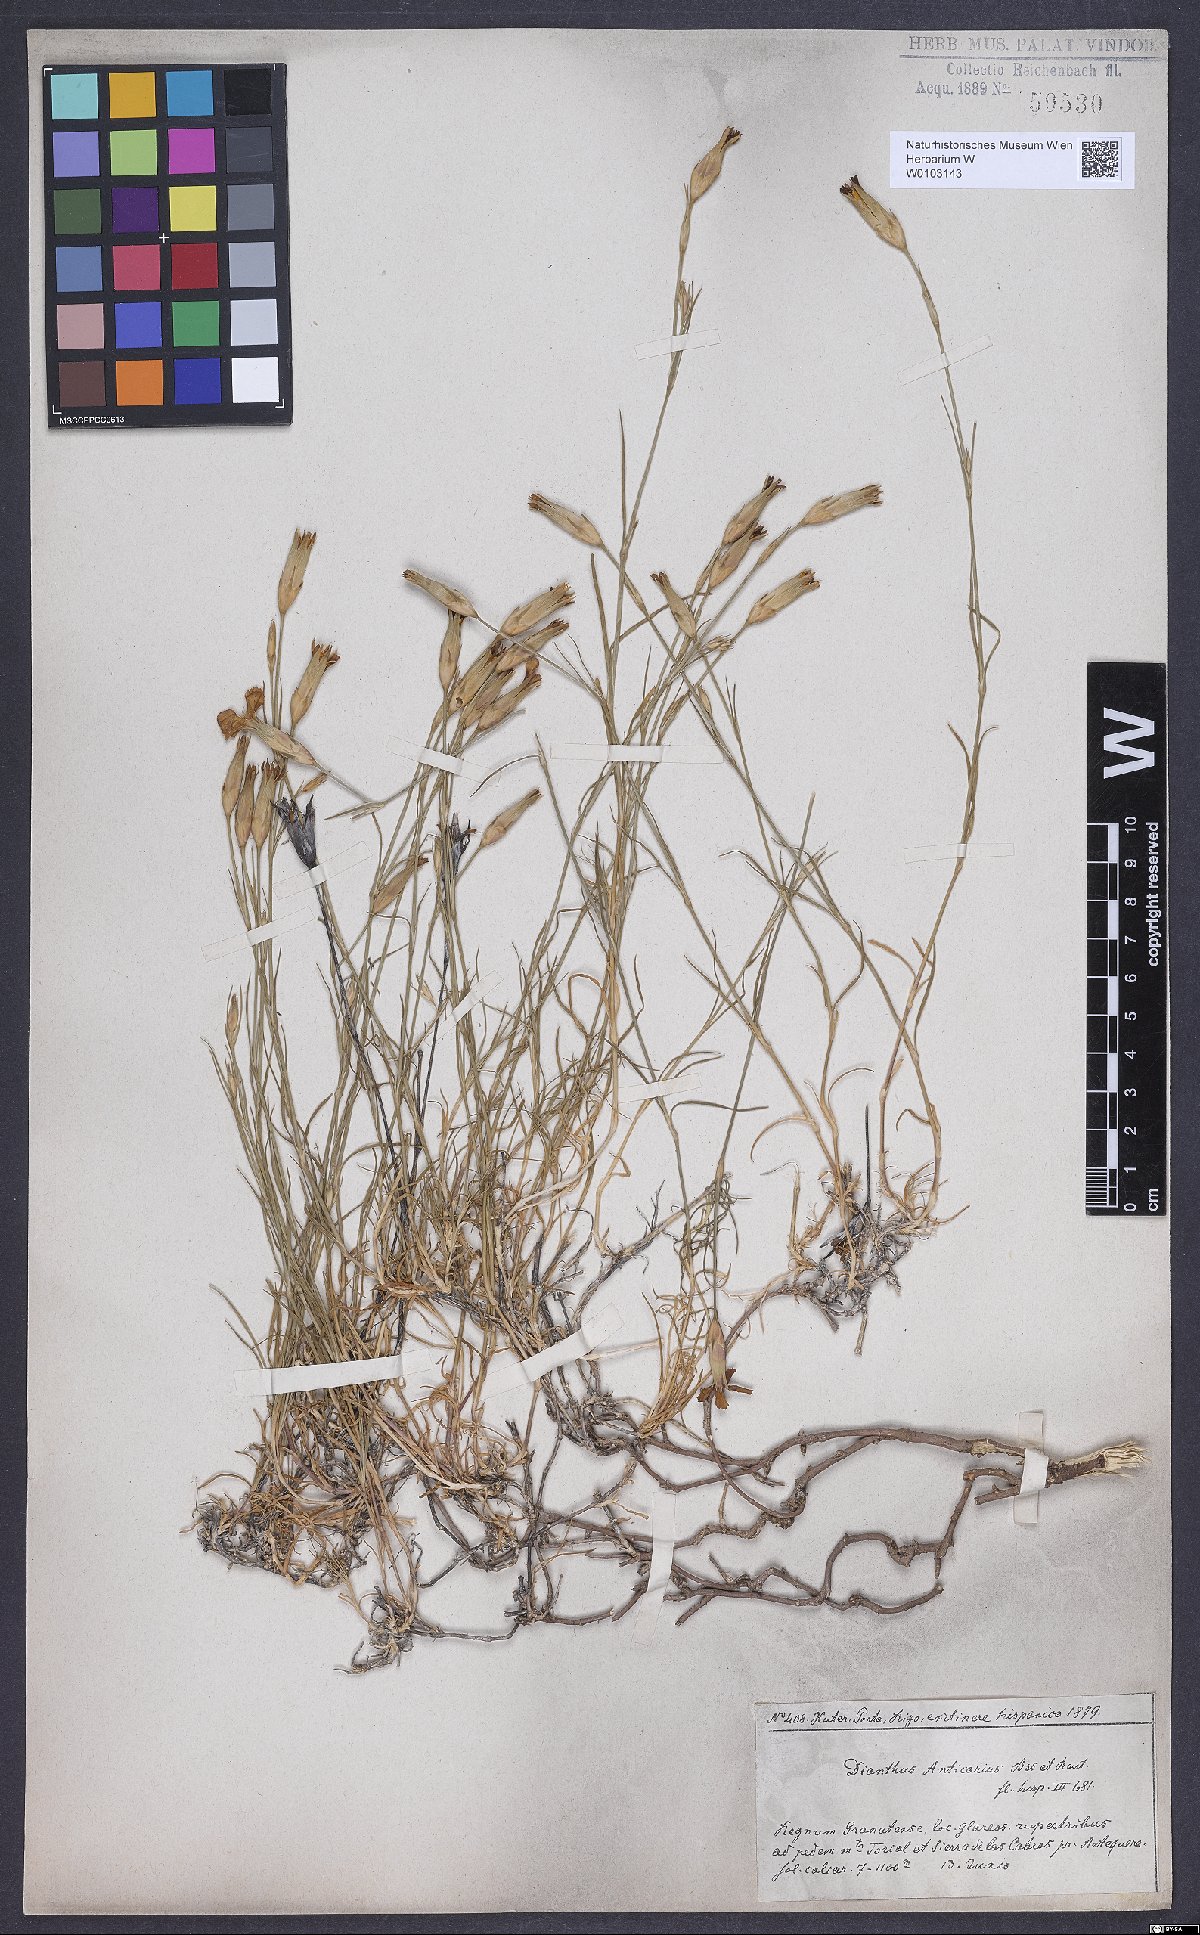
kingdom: Plantae
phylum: Tracheophyta
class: Magnoliopsida
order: Caryophyllales
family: Caryophyllaceae
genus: Dianthus
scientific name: Dianthus anticarius
